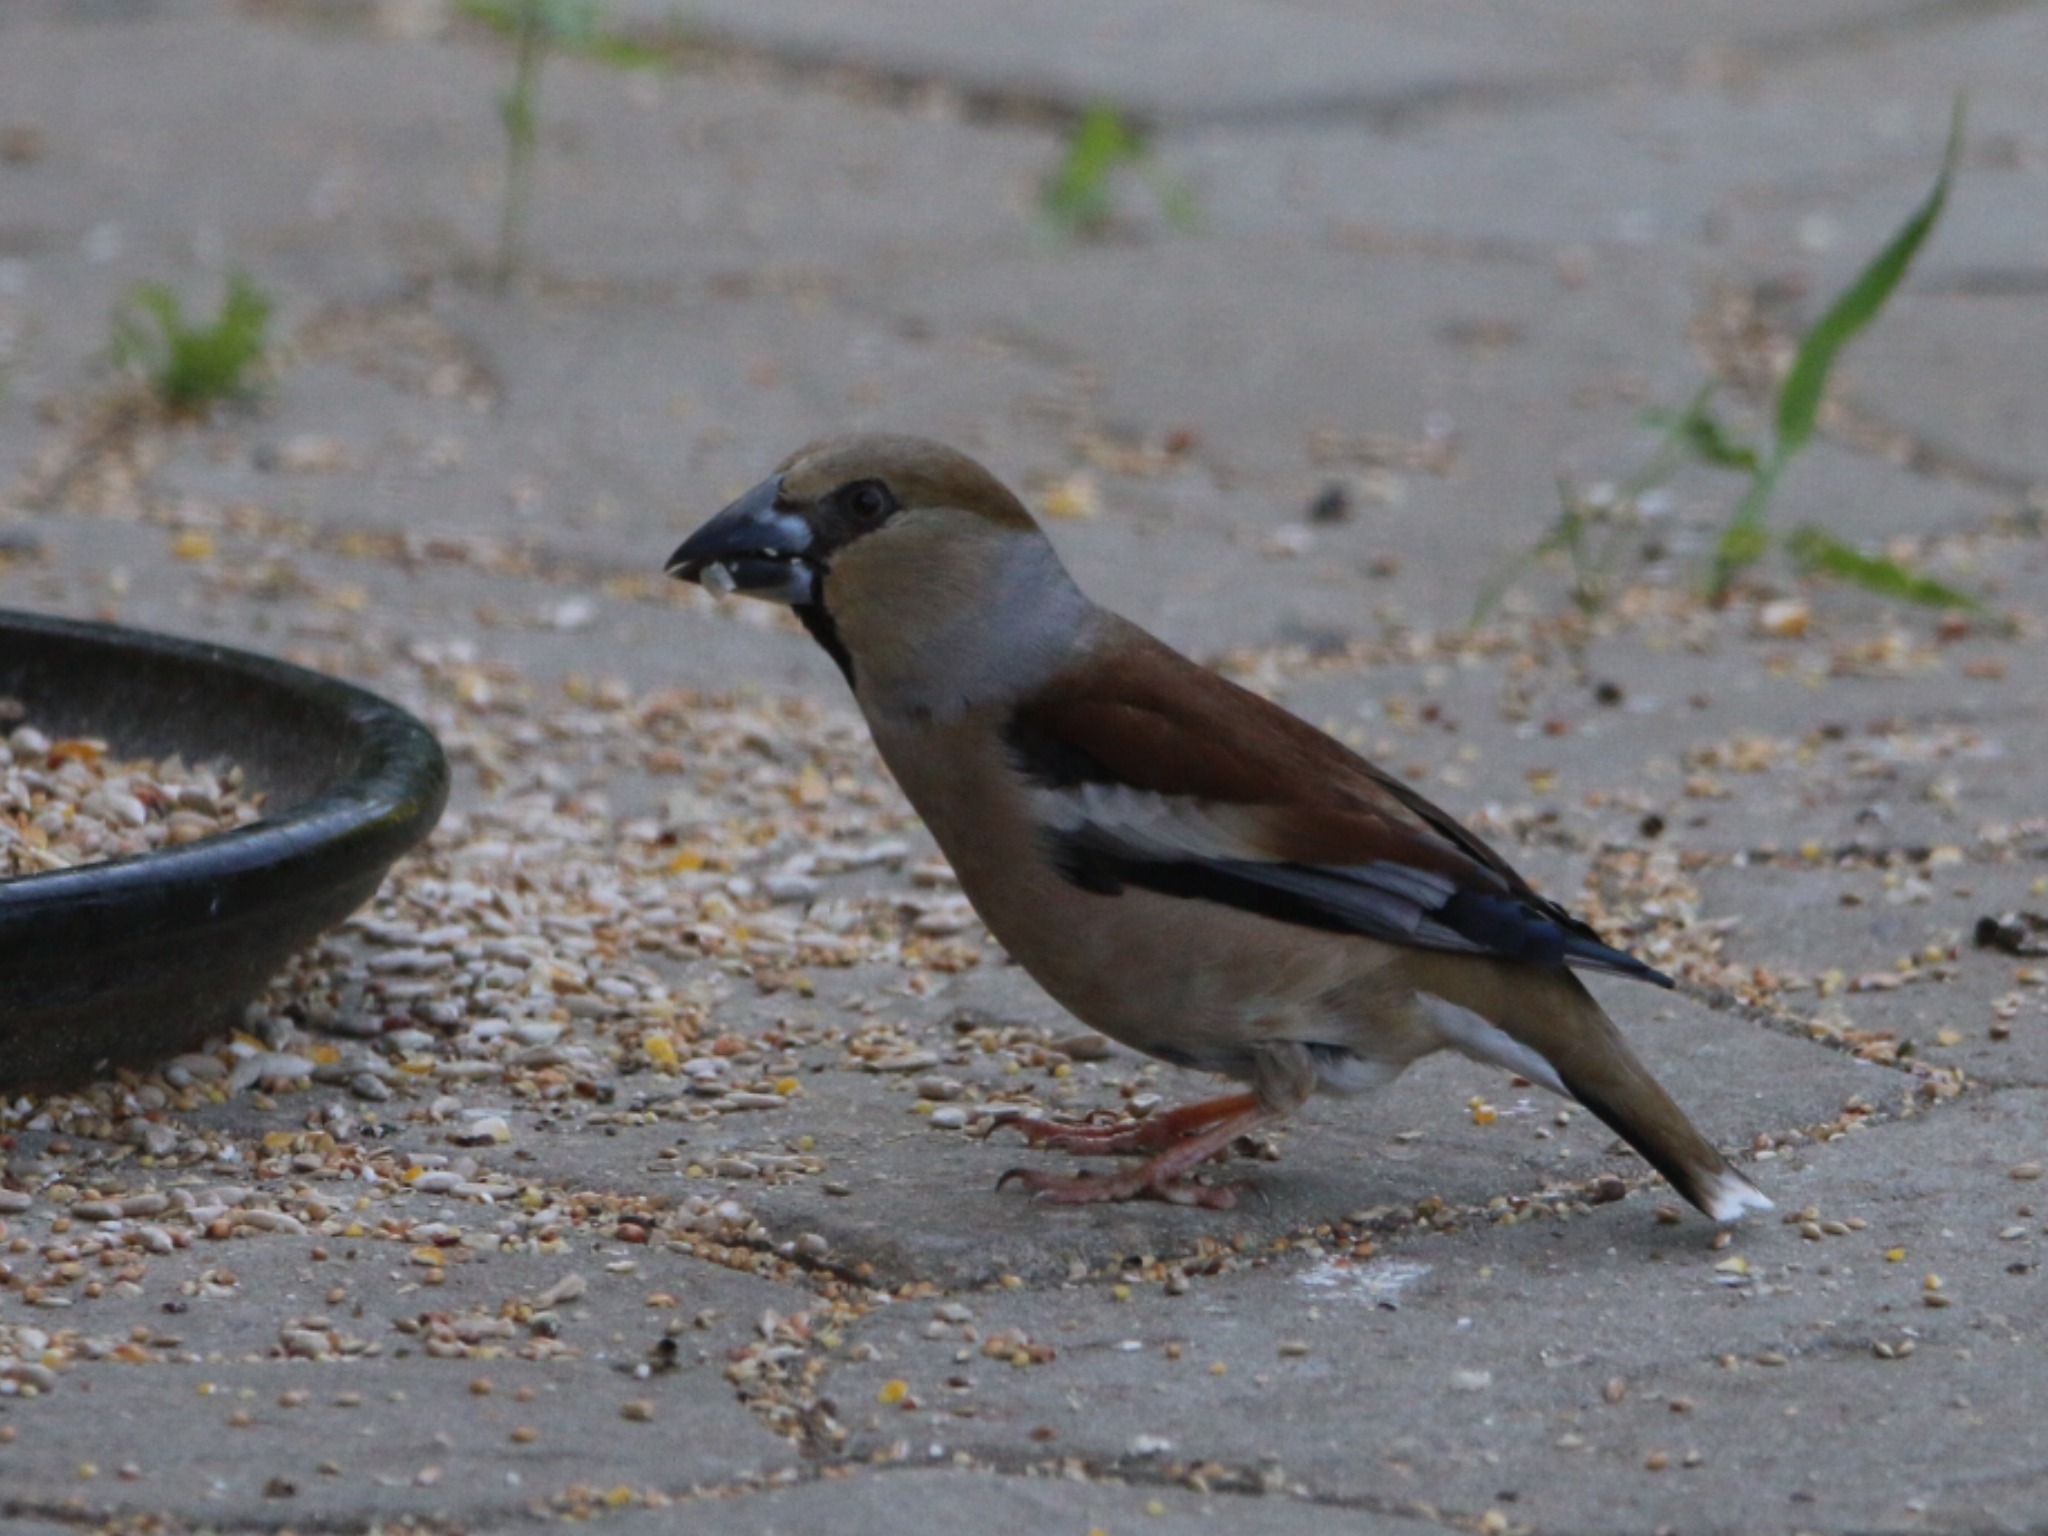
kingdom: Animalia
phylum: Chordata
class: Aves
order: Passeriformes
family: Fringillidae
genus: Coccothraustes
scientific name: Coccothraustes coccothraustes
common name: Kernebider
